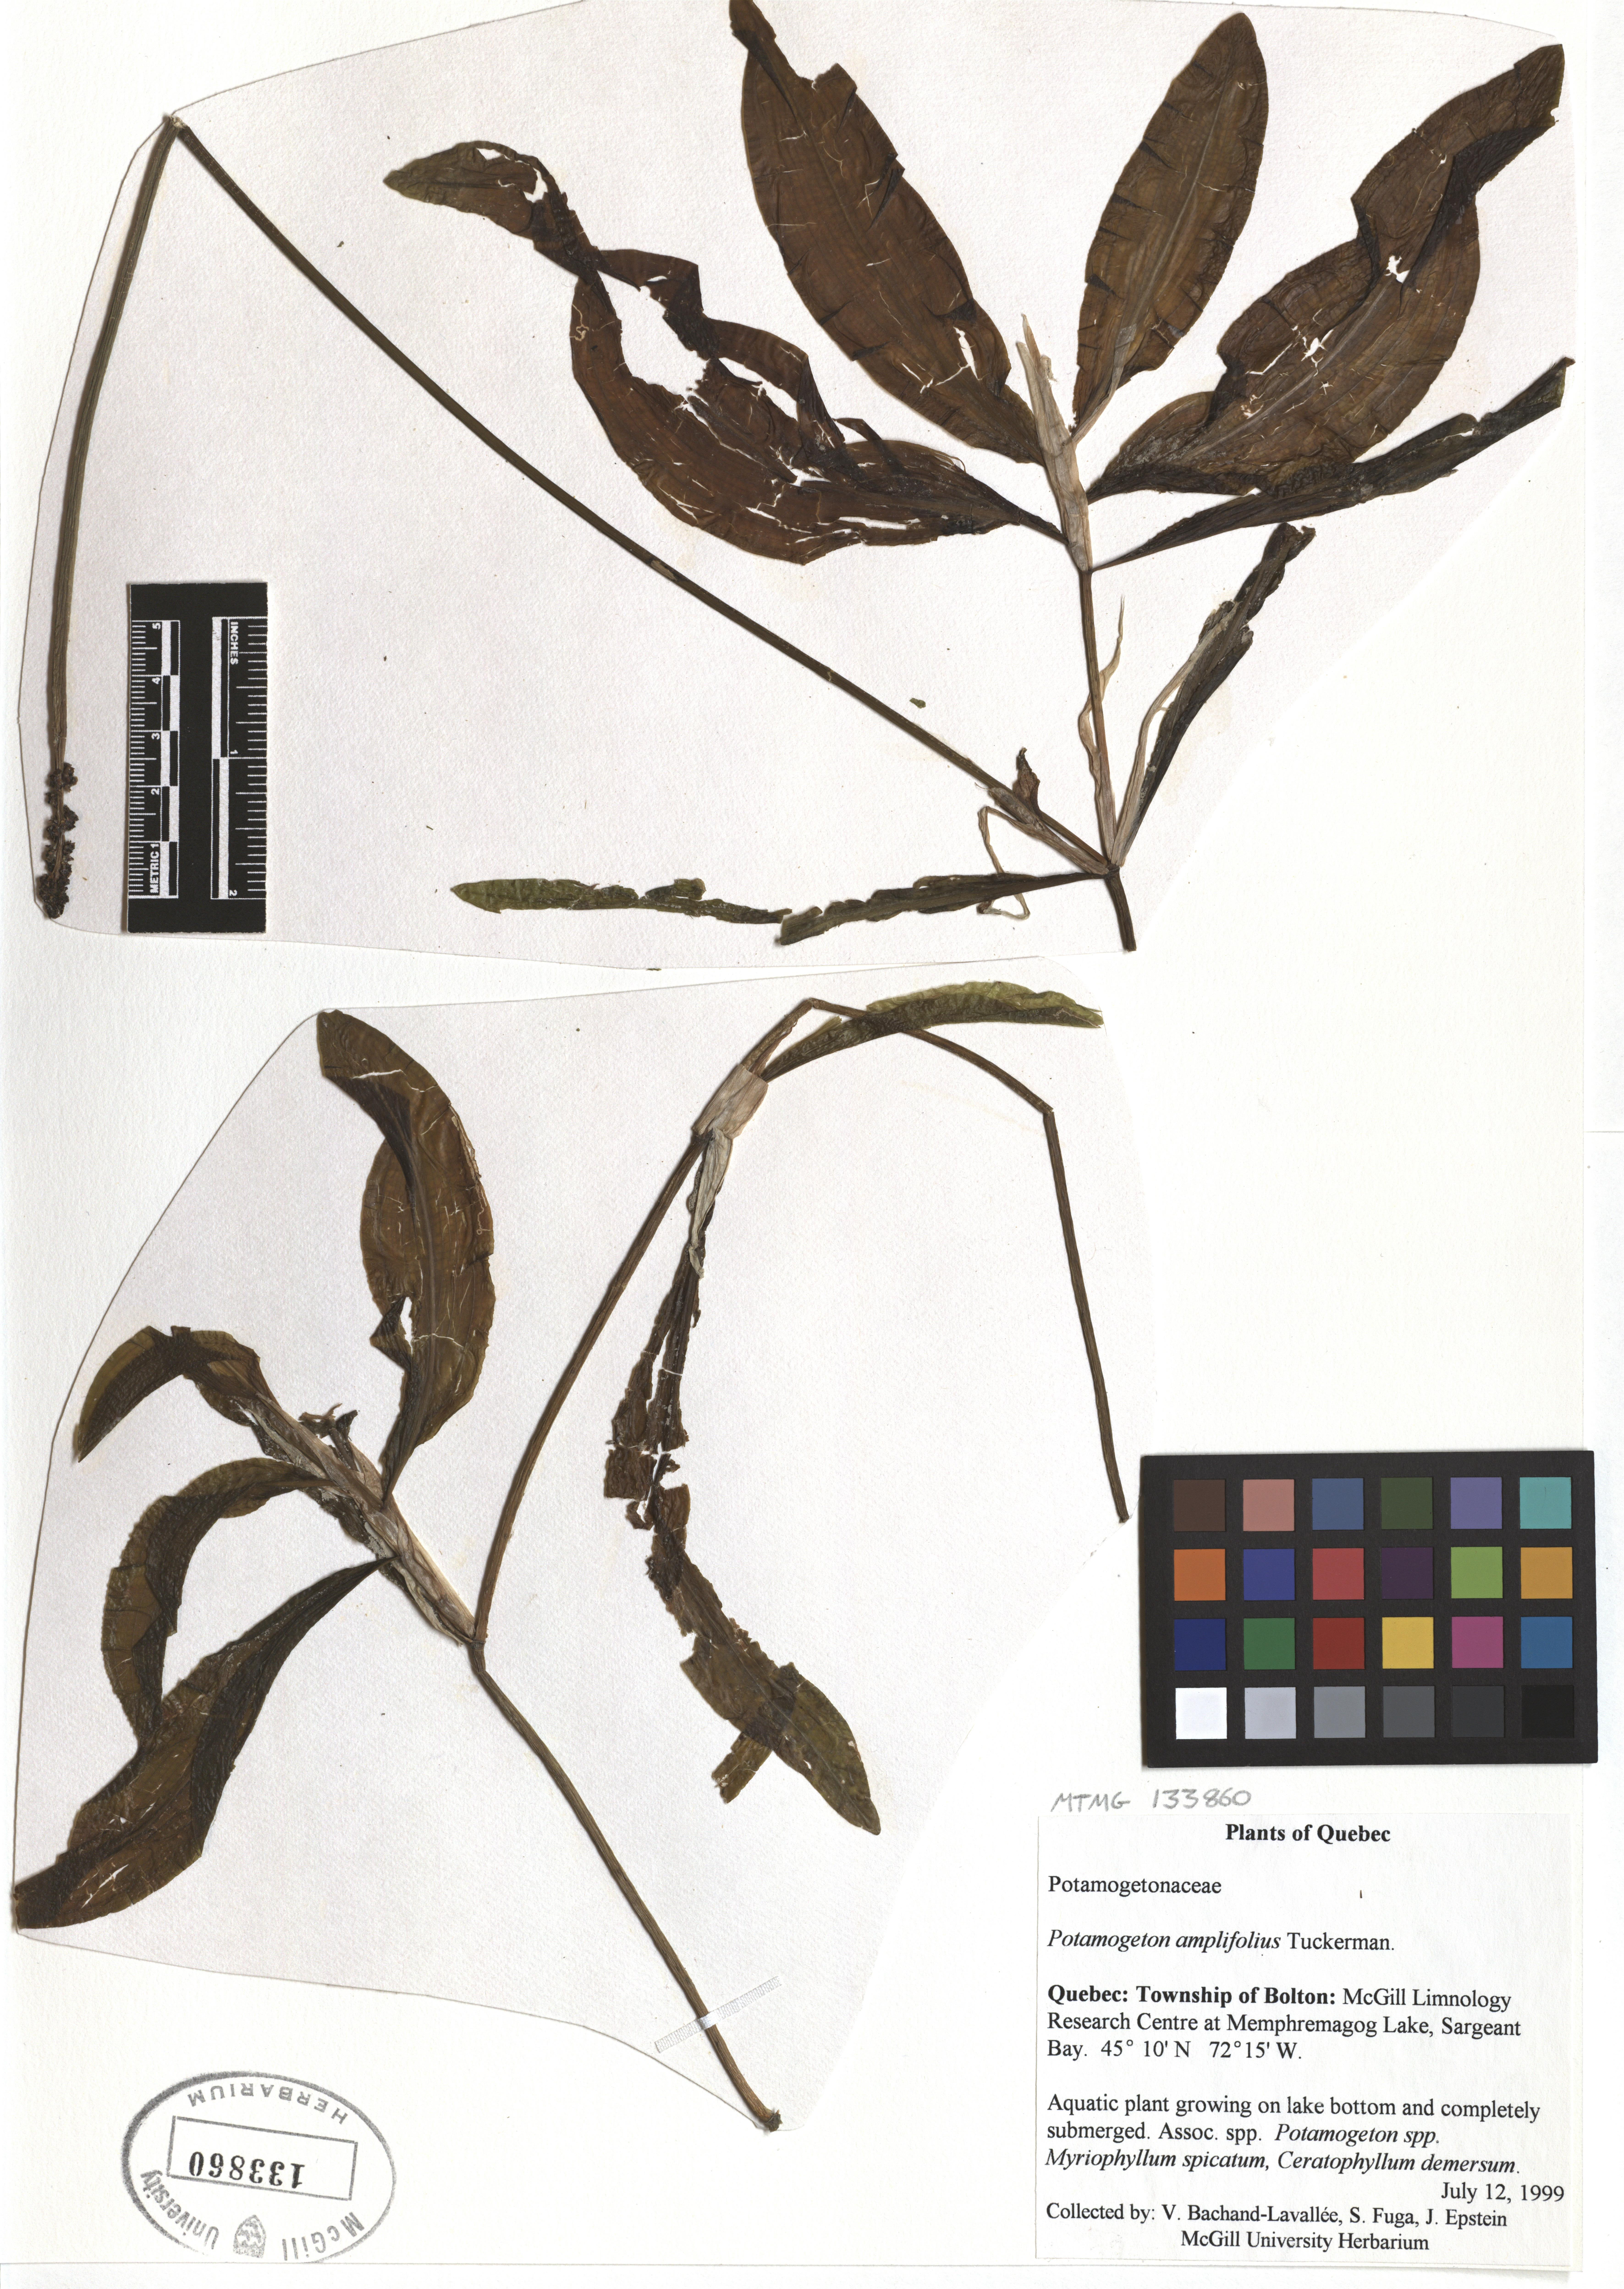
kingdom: Plantae
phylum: Tracheophyta
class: Liliopsida
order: Alismatales
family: Potamogetonaceae
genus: Potamogeton
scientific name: Potamogeton amplifolius
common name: Broad-leaved pondweed
